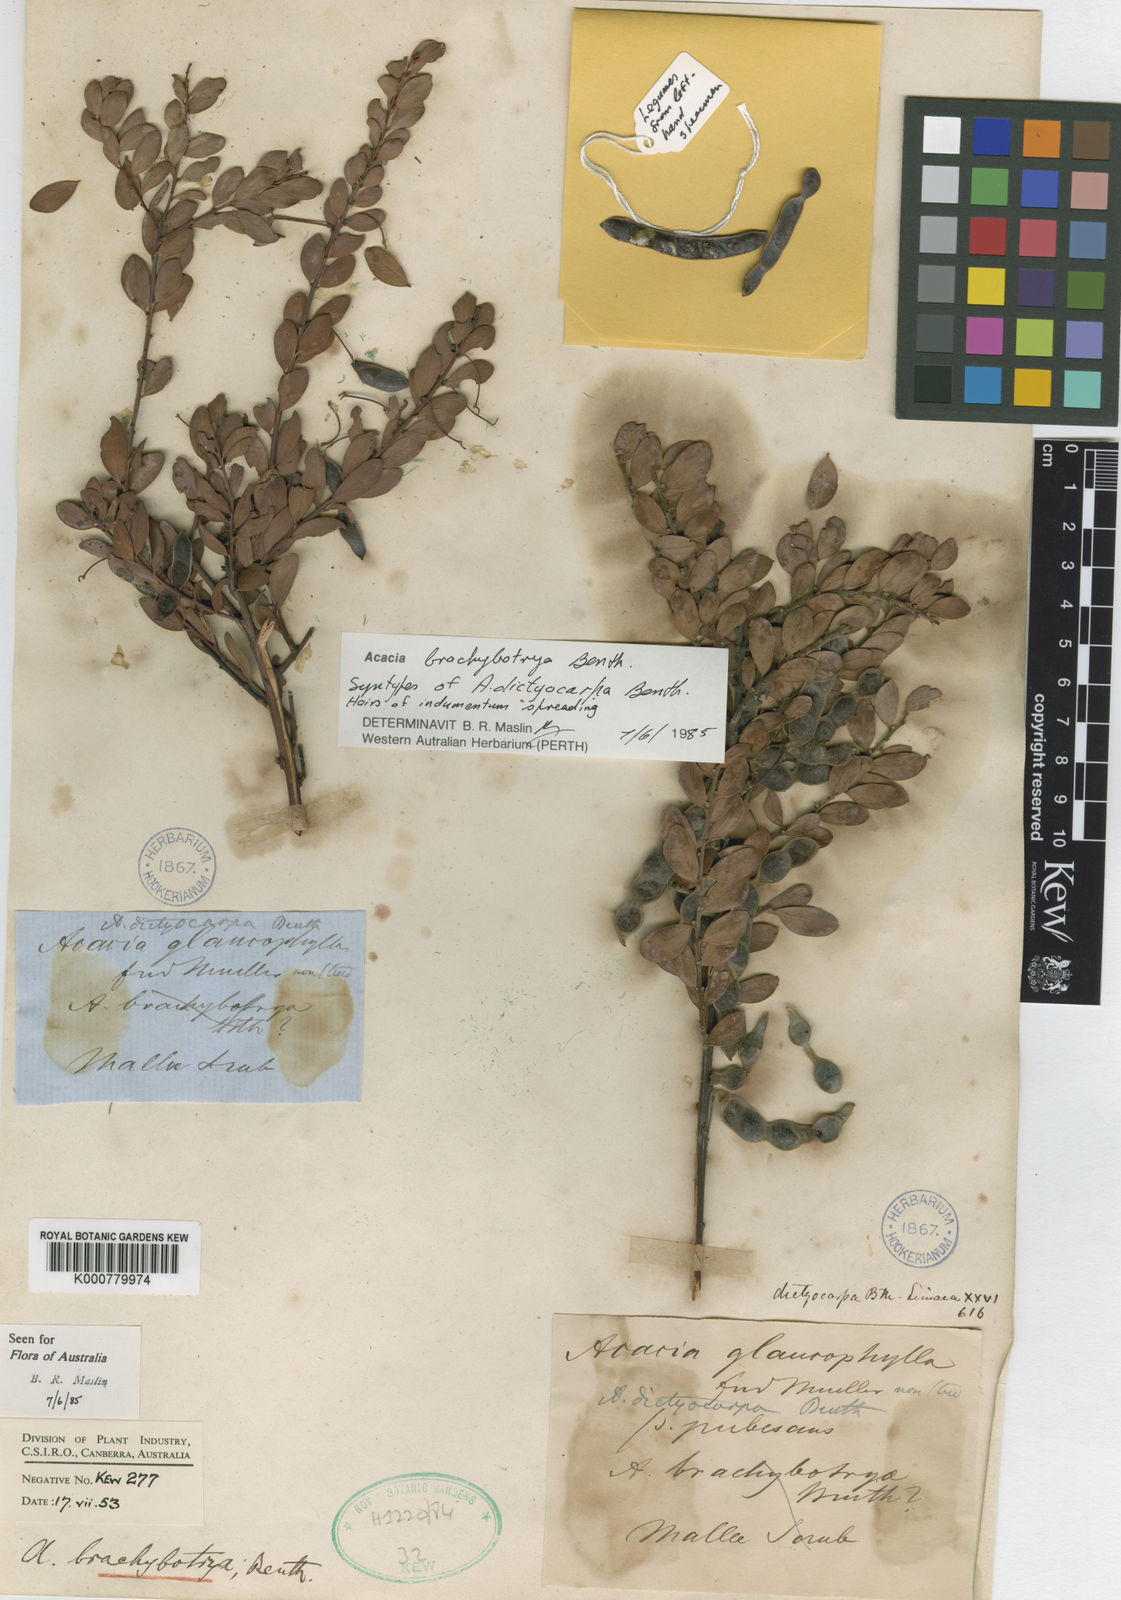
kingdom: Plantae
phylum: Tracheophyta
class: Magnoliopsida
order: Fabales
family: Fabaceae
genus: Acacia
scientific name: Acacia brachybotrya
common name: Grey mulga
